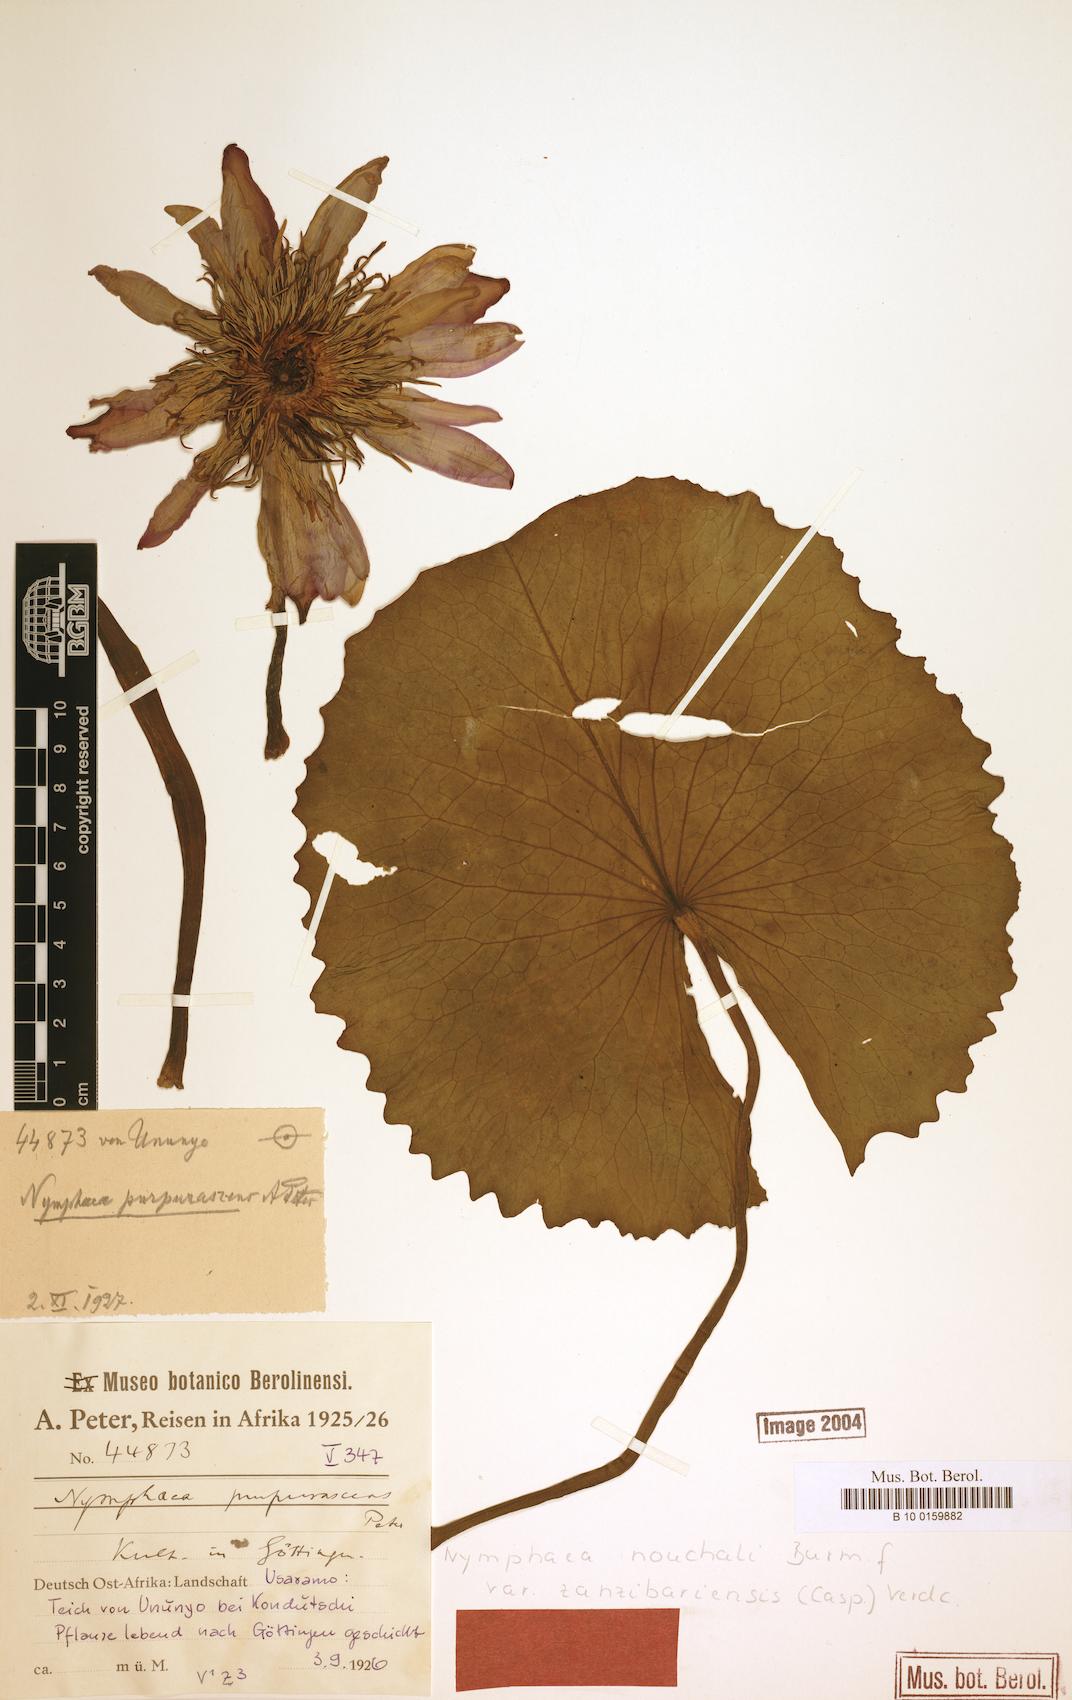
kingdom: Plantae
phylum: Tracheophyta
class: Magnoliopsida
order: Nymphaeales
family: Nymphaeaceae
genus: Nymphaea
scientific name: Nymphaea nouchali
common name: Blue lotus
